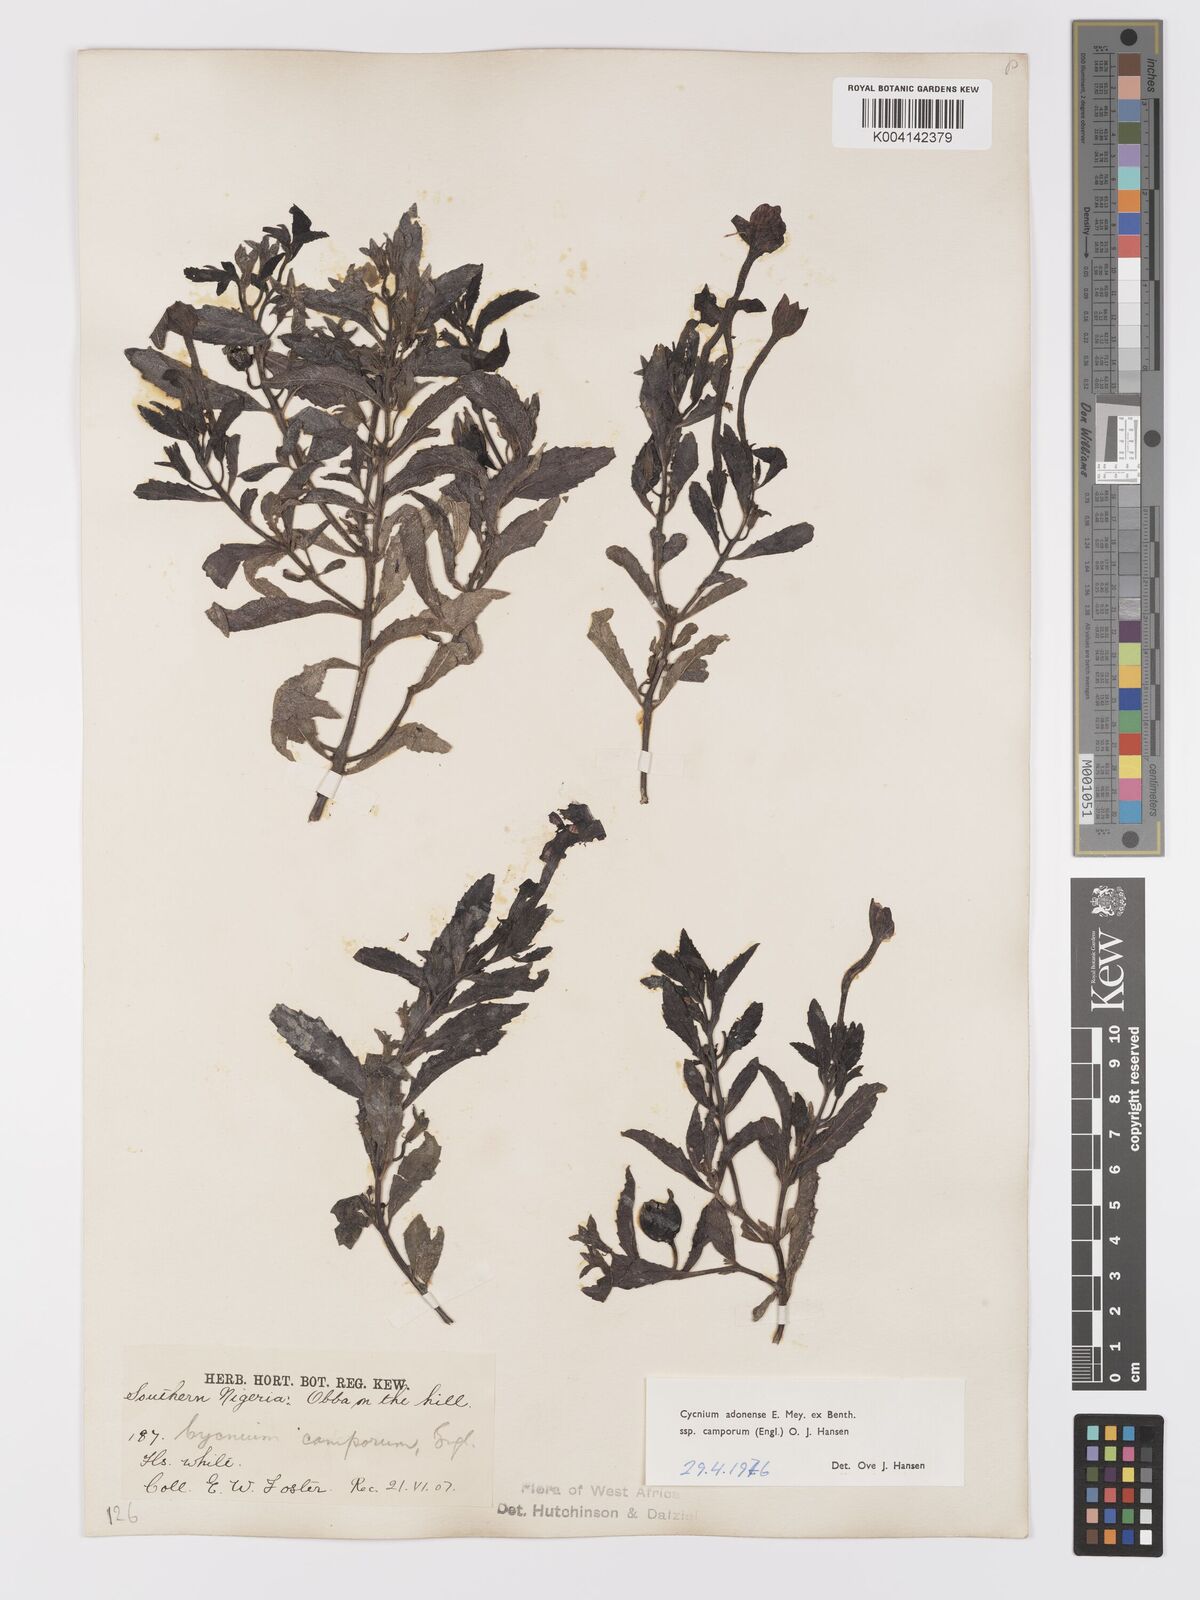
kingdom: Plantae
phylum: Tracheophyta
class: Magnoliopsida
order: Lamiales
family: Orobanchaceae
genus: Cycnium
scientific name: Cycnium adoense
